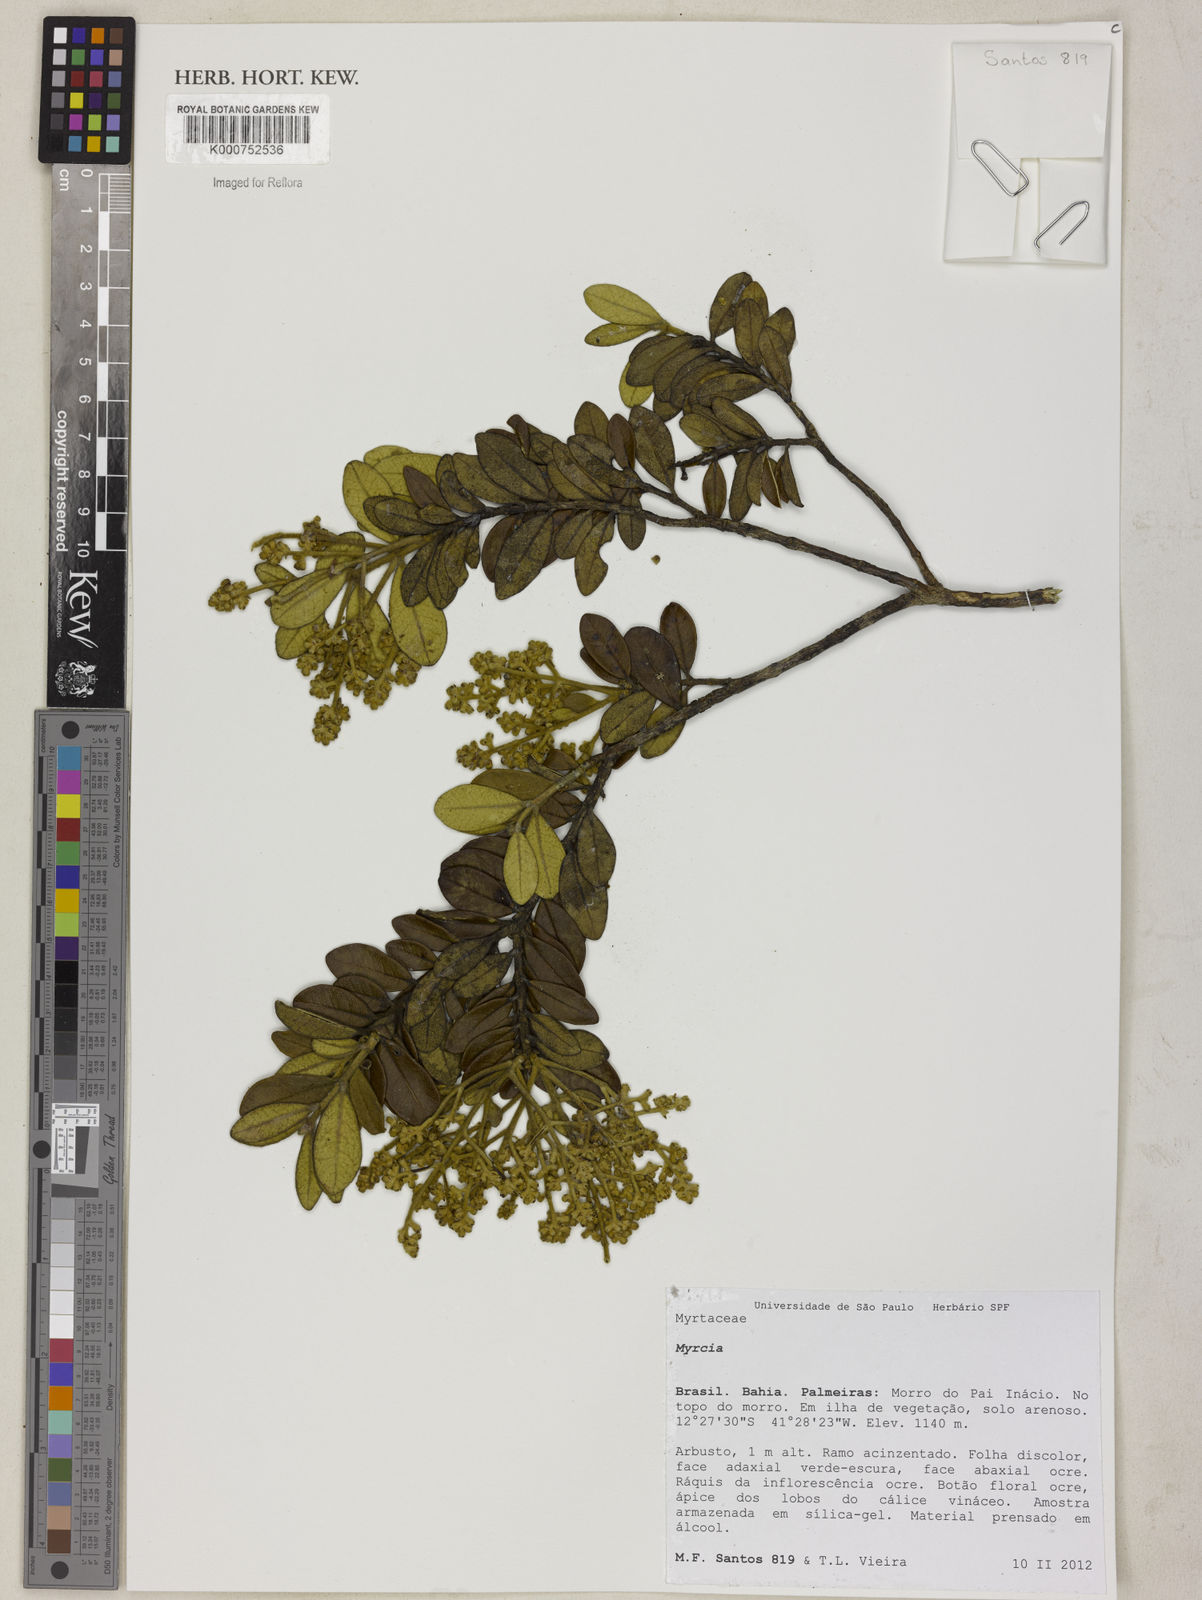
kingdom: Plantae
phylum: Tracheophyta
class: Magnoliopsida
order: Myrtales
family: Myrtaceae
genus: Myrcia
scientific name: Myrcia blanchetiana
